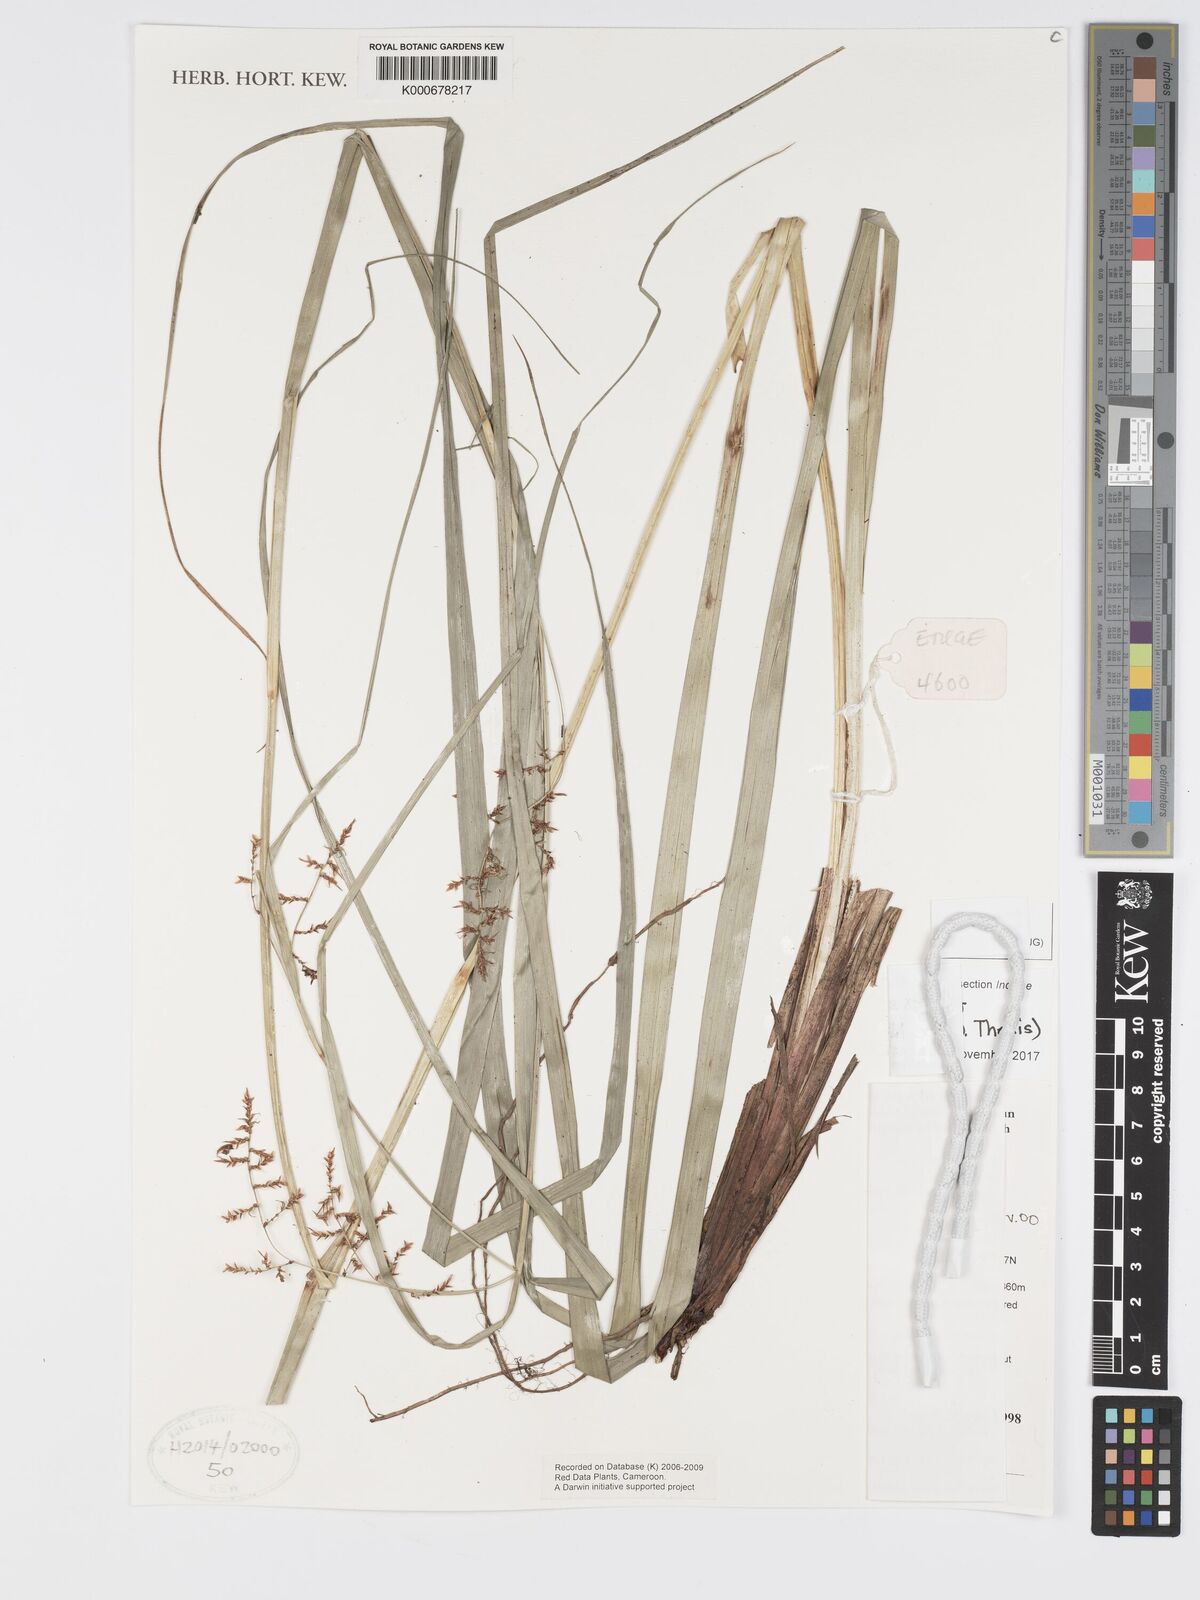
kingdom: Plantae
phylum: Tracheophyta
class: Liliopsida
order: Poales
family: Cyperaceae
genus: Carex
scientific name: Carex
